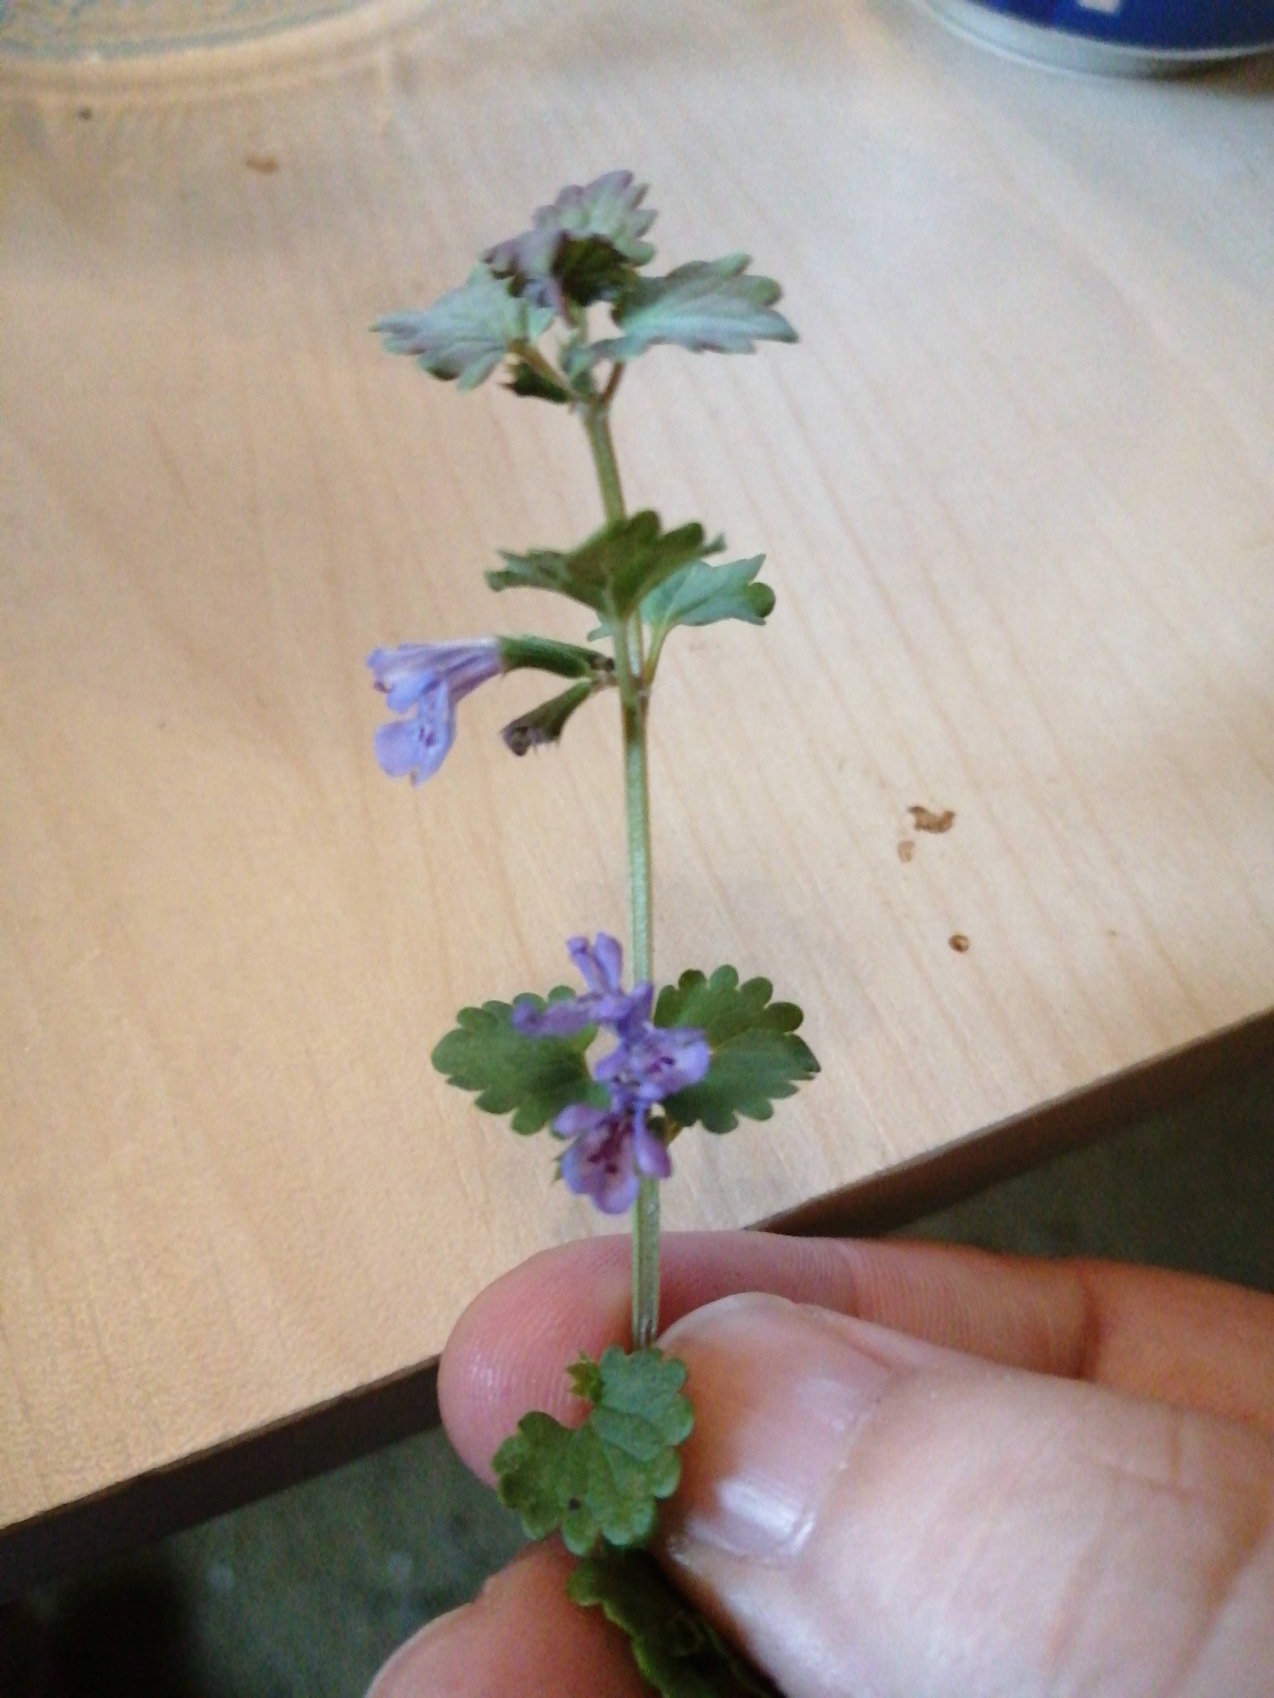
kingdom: Plantae
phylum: Tracheophyta
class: Magnoliopsida
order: Lamiales
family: Lamiaceae
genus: Glechoma
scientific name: Glechoma hederacea
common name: Korsknap
